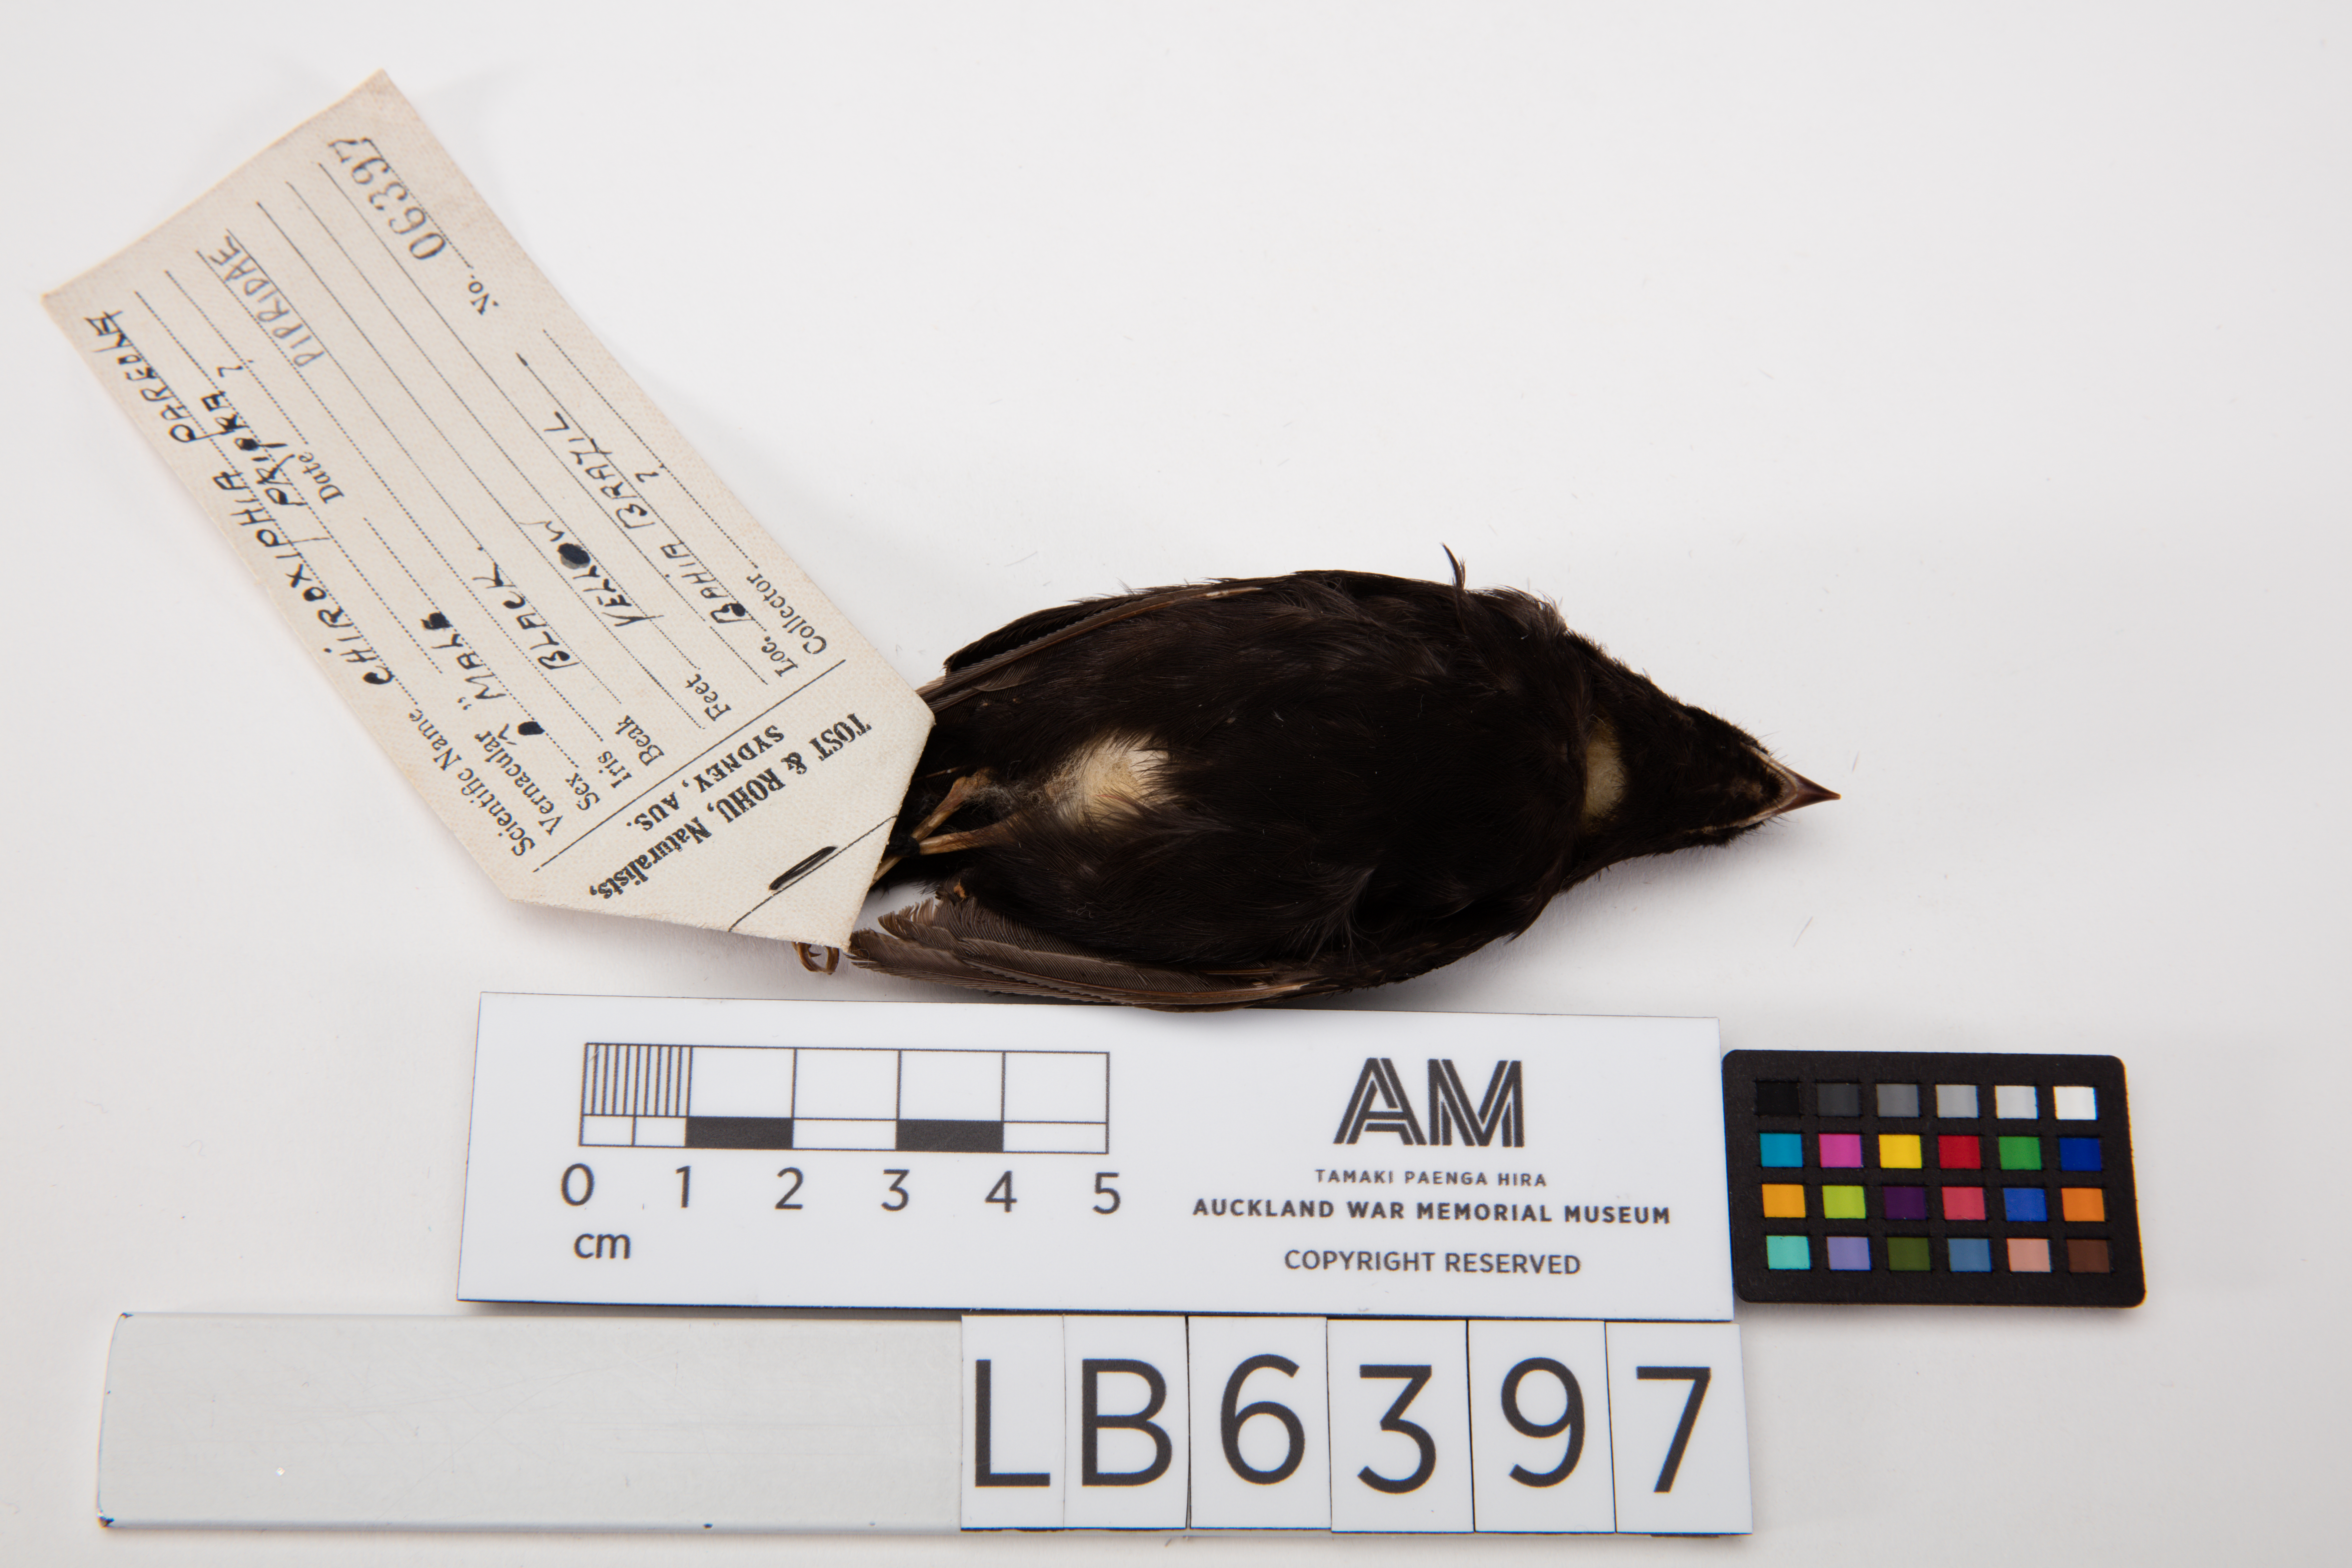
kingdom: Animalia
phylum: Chordata
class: Aves
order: Passeriformes
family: Pipridae
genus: Chiroxiphia
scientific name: Chiroxiphia pareola
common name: Blue-backed manakin
